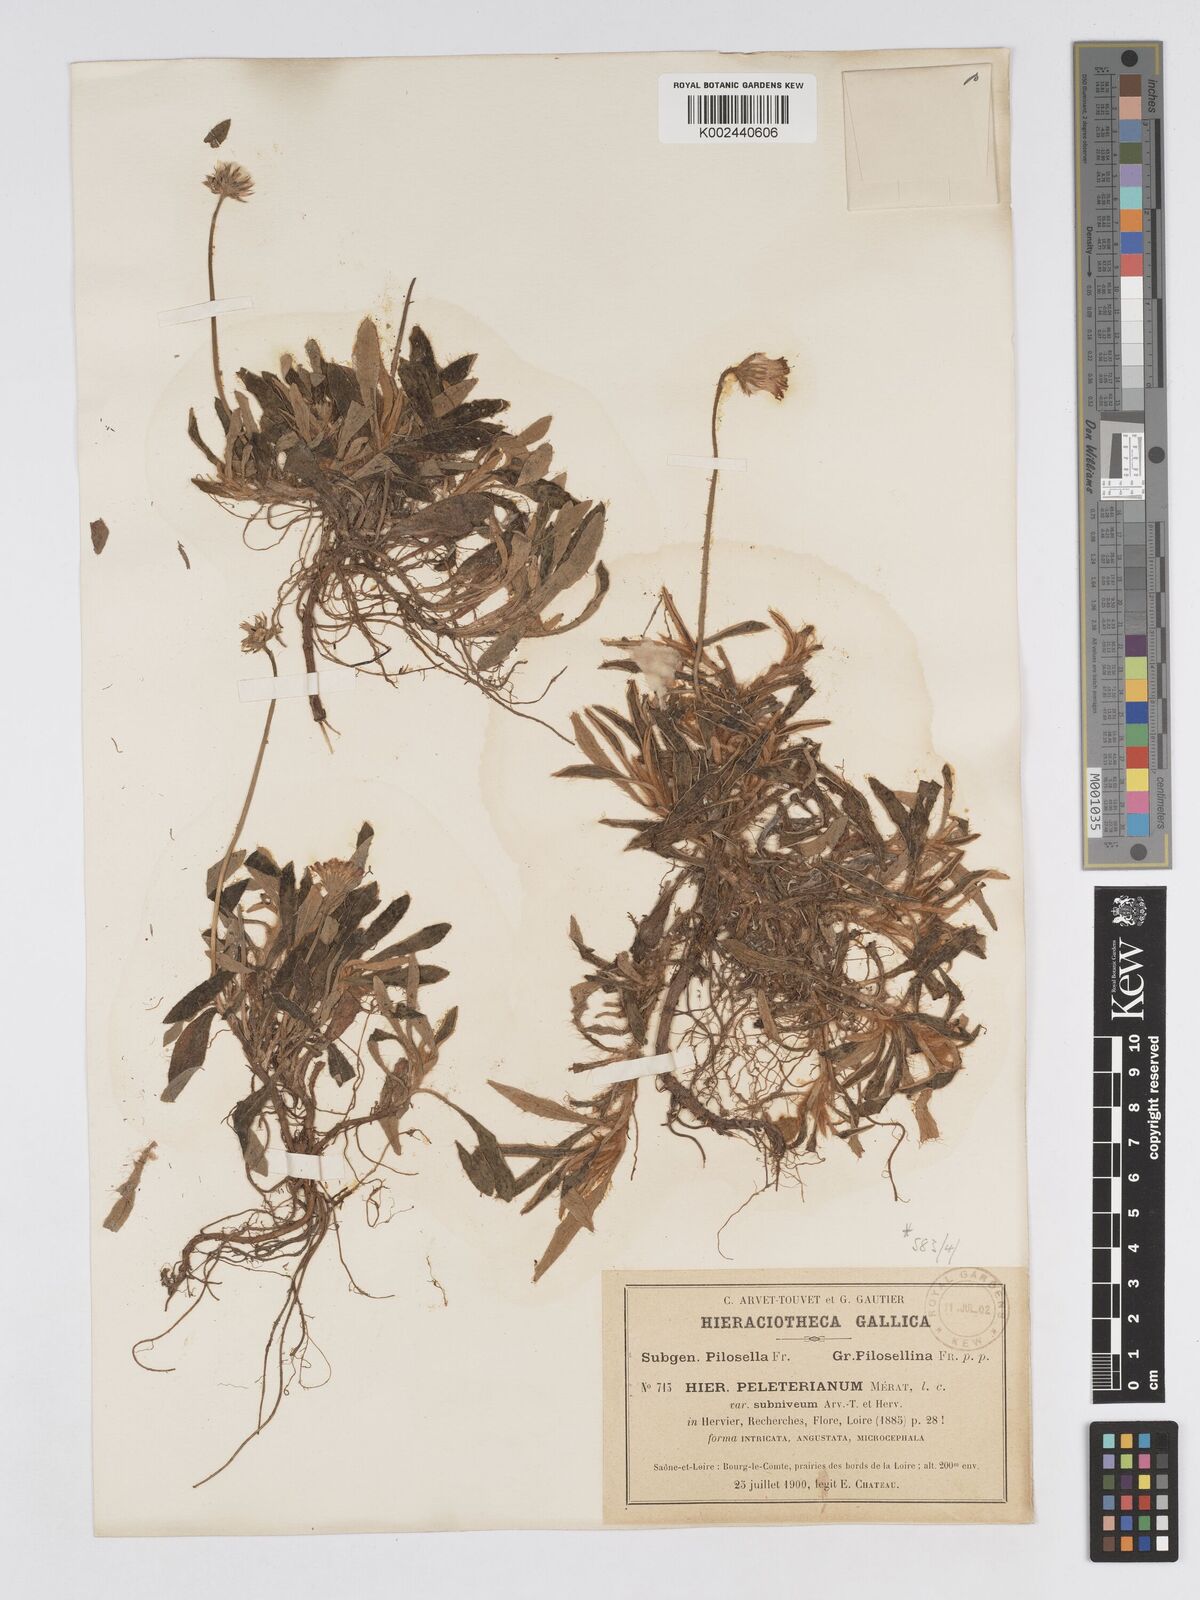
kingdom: Plantae
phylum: Tracheophyta
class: Magnoliopsida
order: Asterales
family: Asteraceae
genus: Pilosella
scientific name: Pilosella periphanoides
